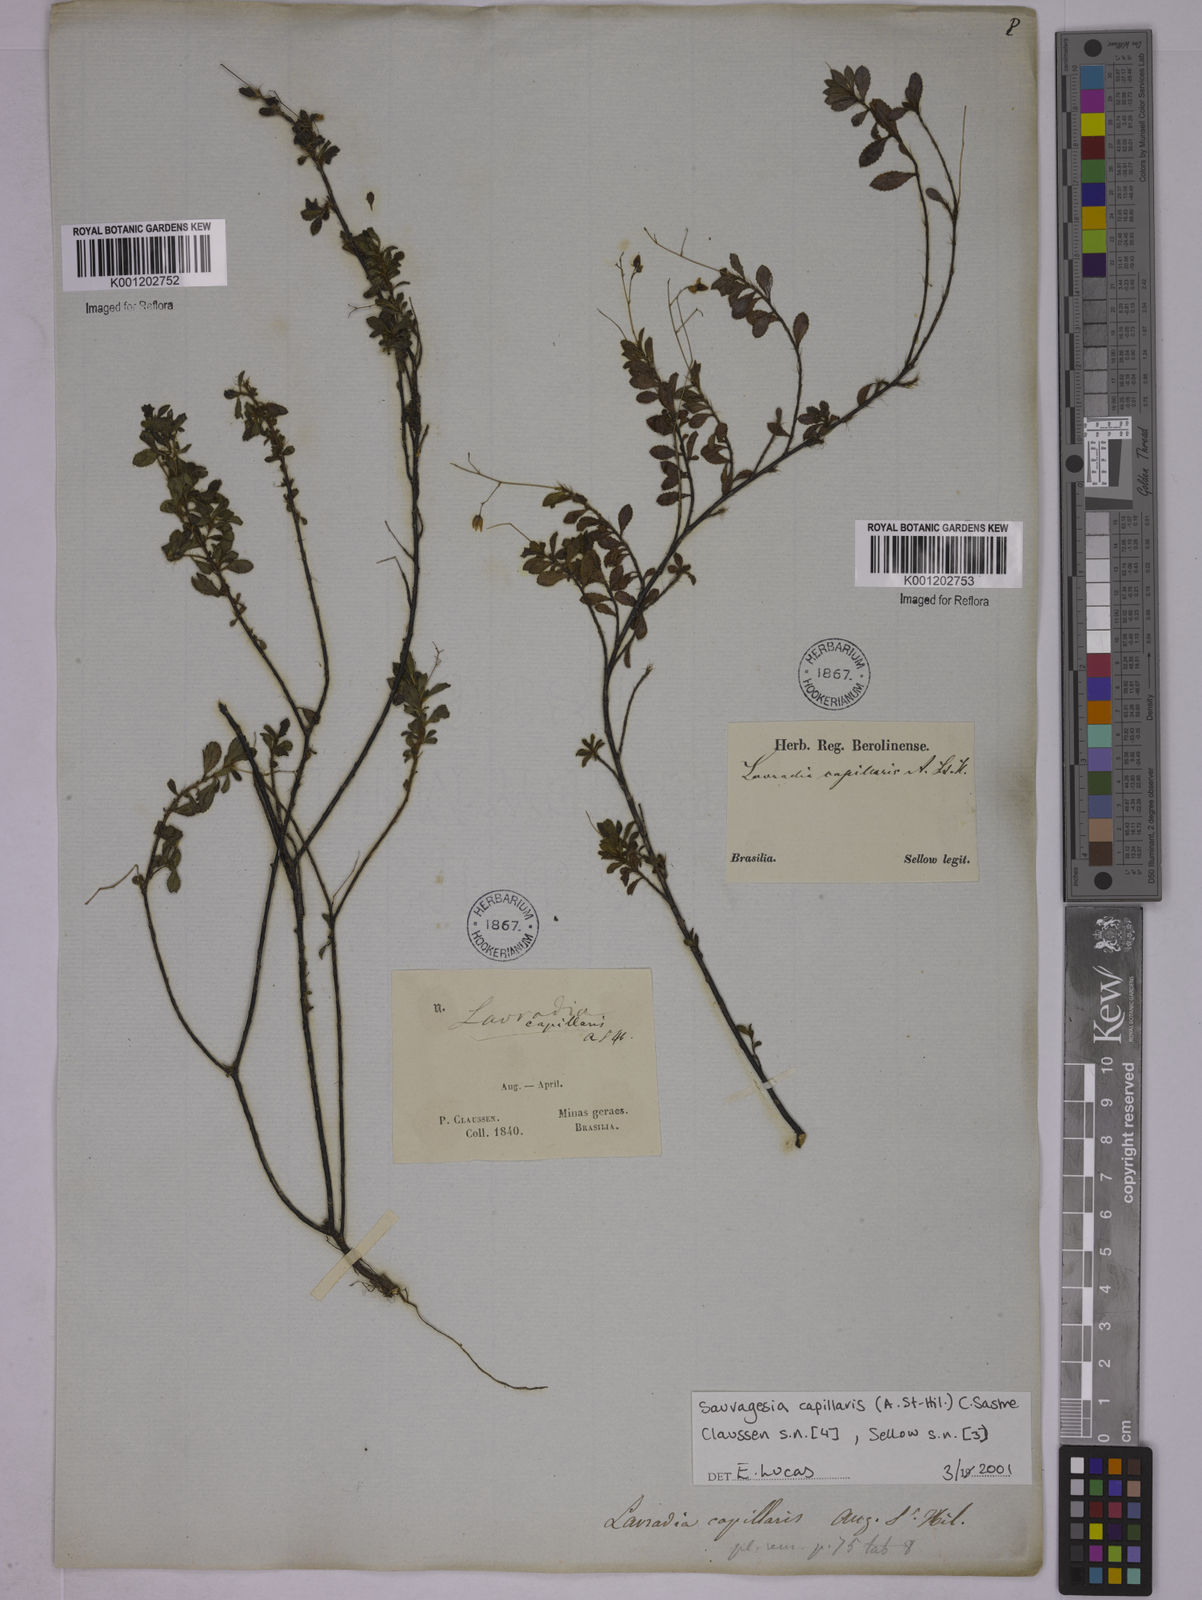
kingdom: Plantae
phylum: Tracheophyta
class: Magnoliopsida
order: Malpighiales
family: Ochnaceae
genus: Sauvagesia
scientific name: Sauvagesia capillaris
